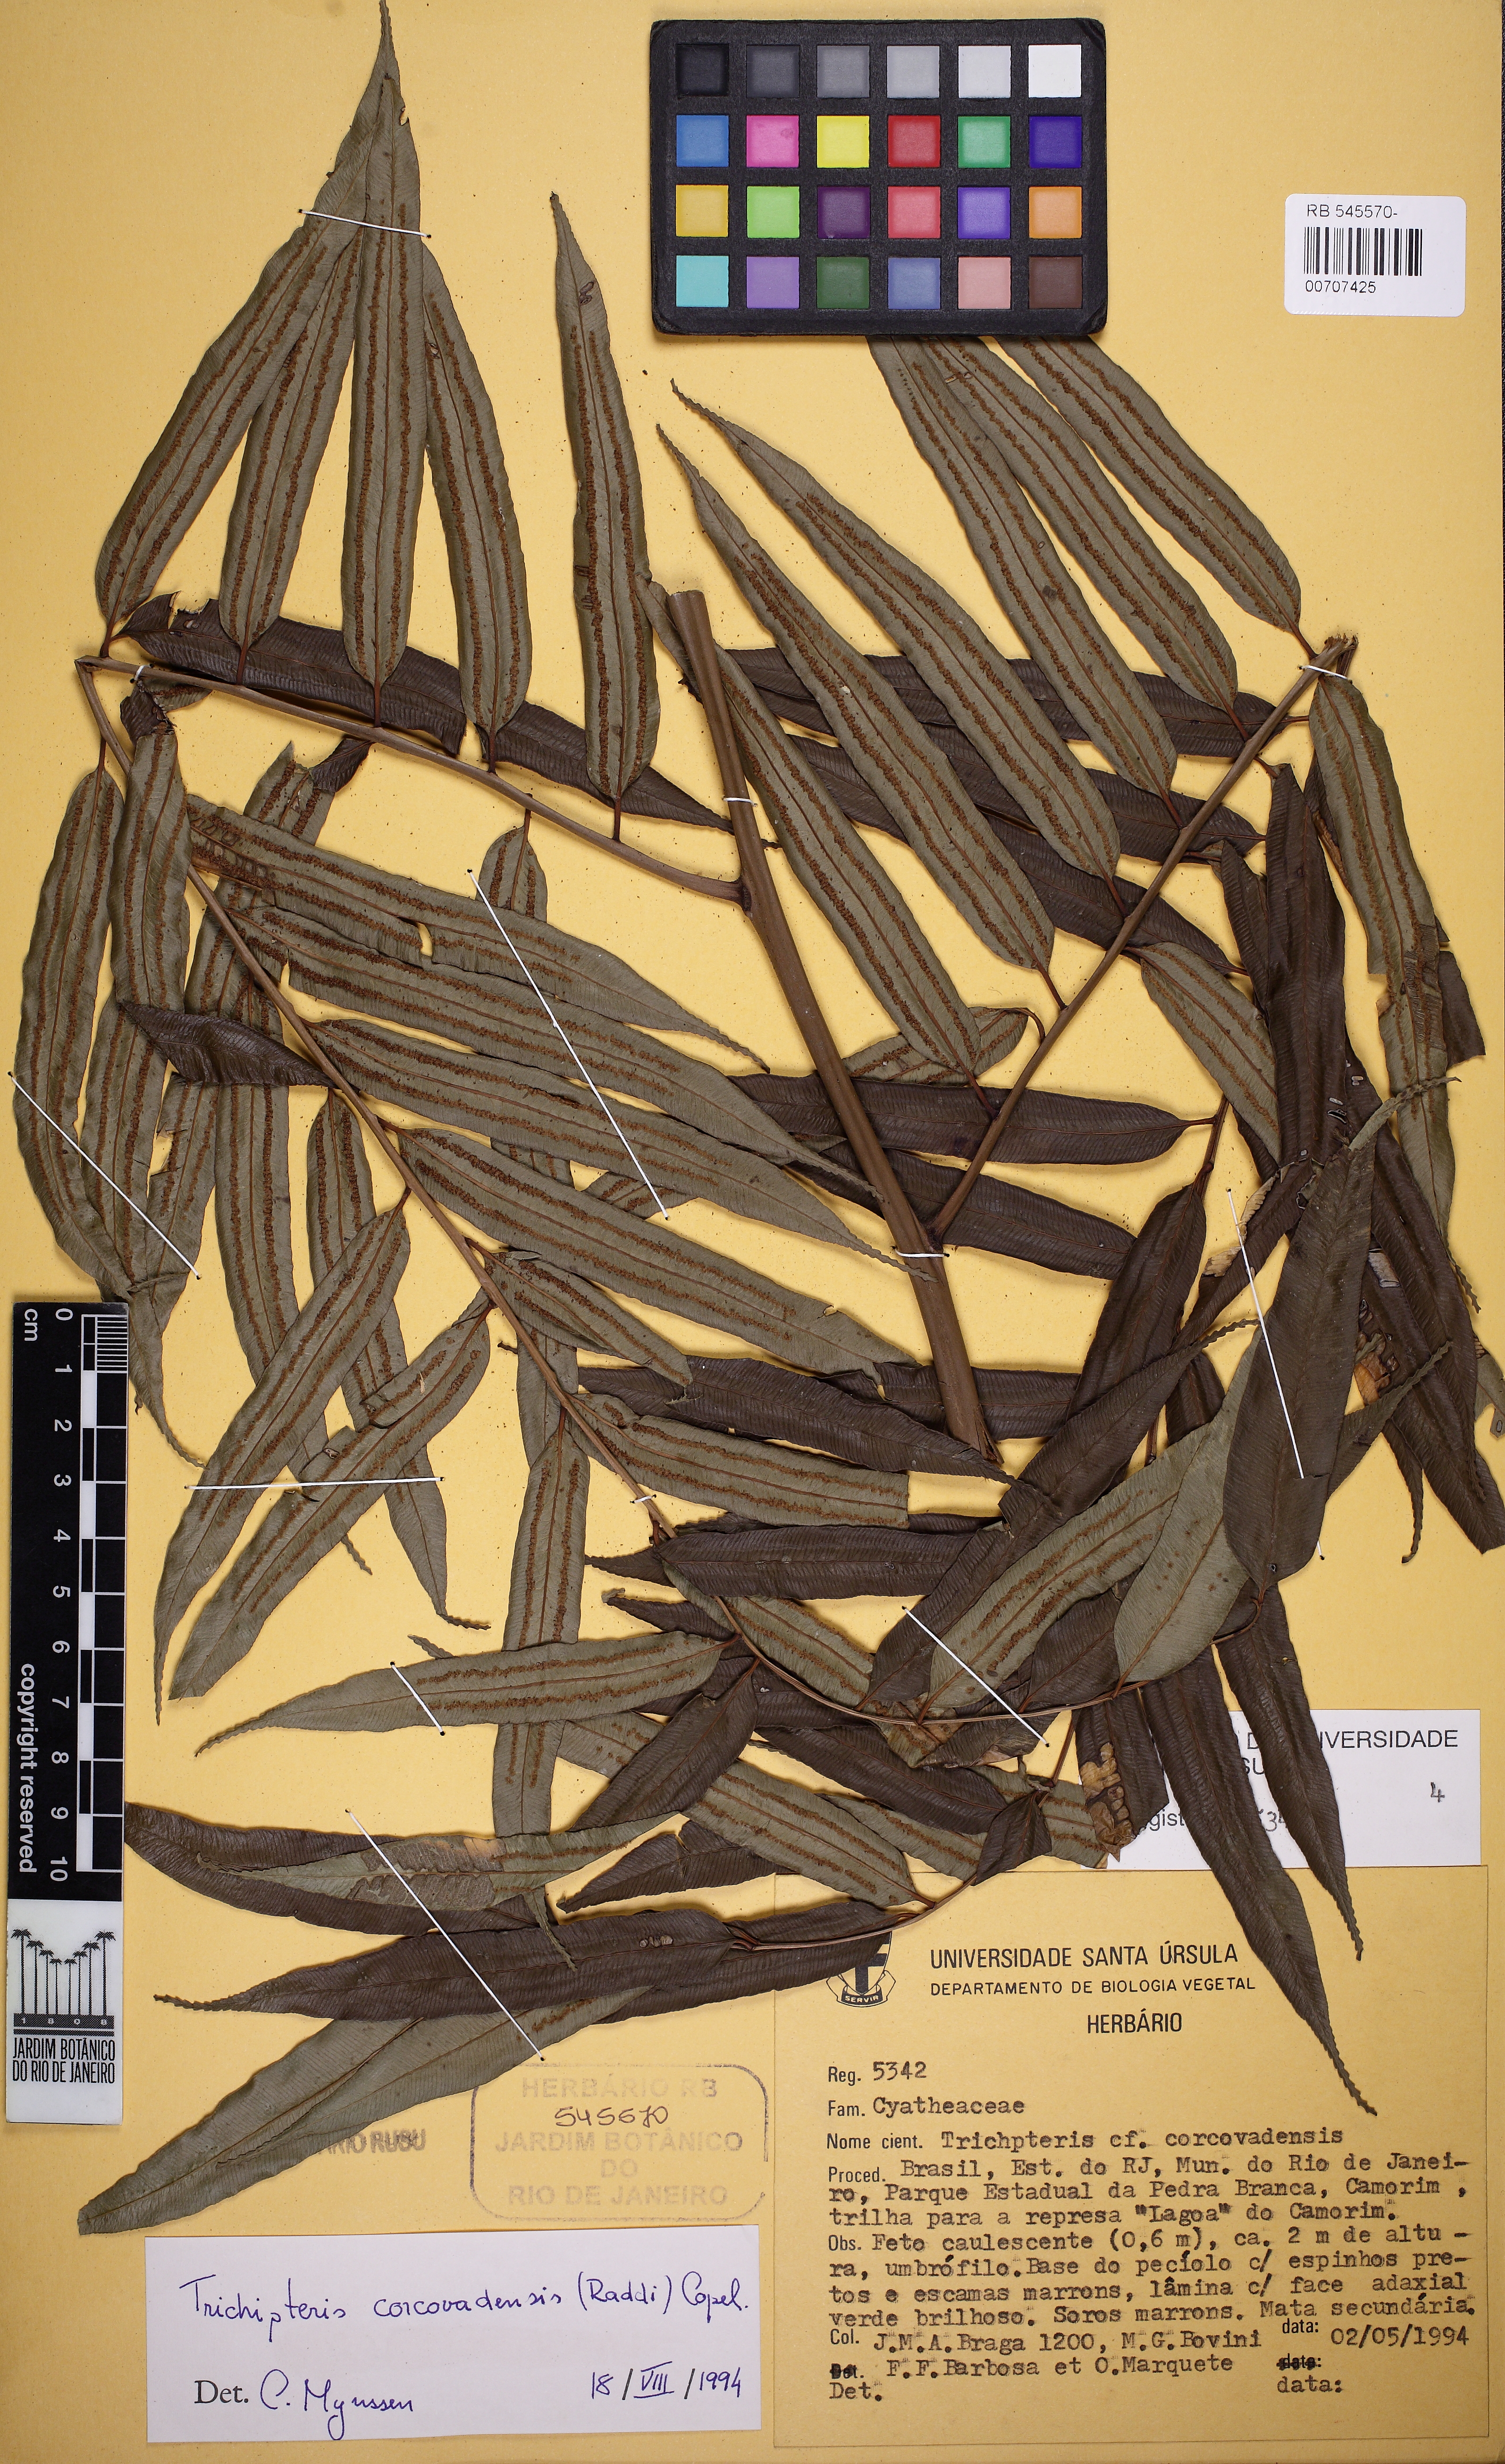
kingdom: Plantae
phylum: Tracheophyta
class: Polypodiopsida
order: Cyatheales
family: Cyatheaceae
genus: Cyathea
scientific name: Cyathea corcovadensis
